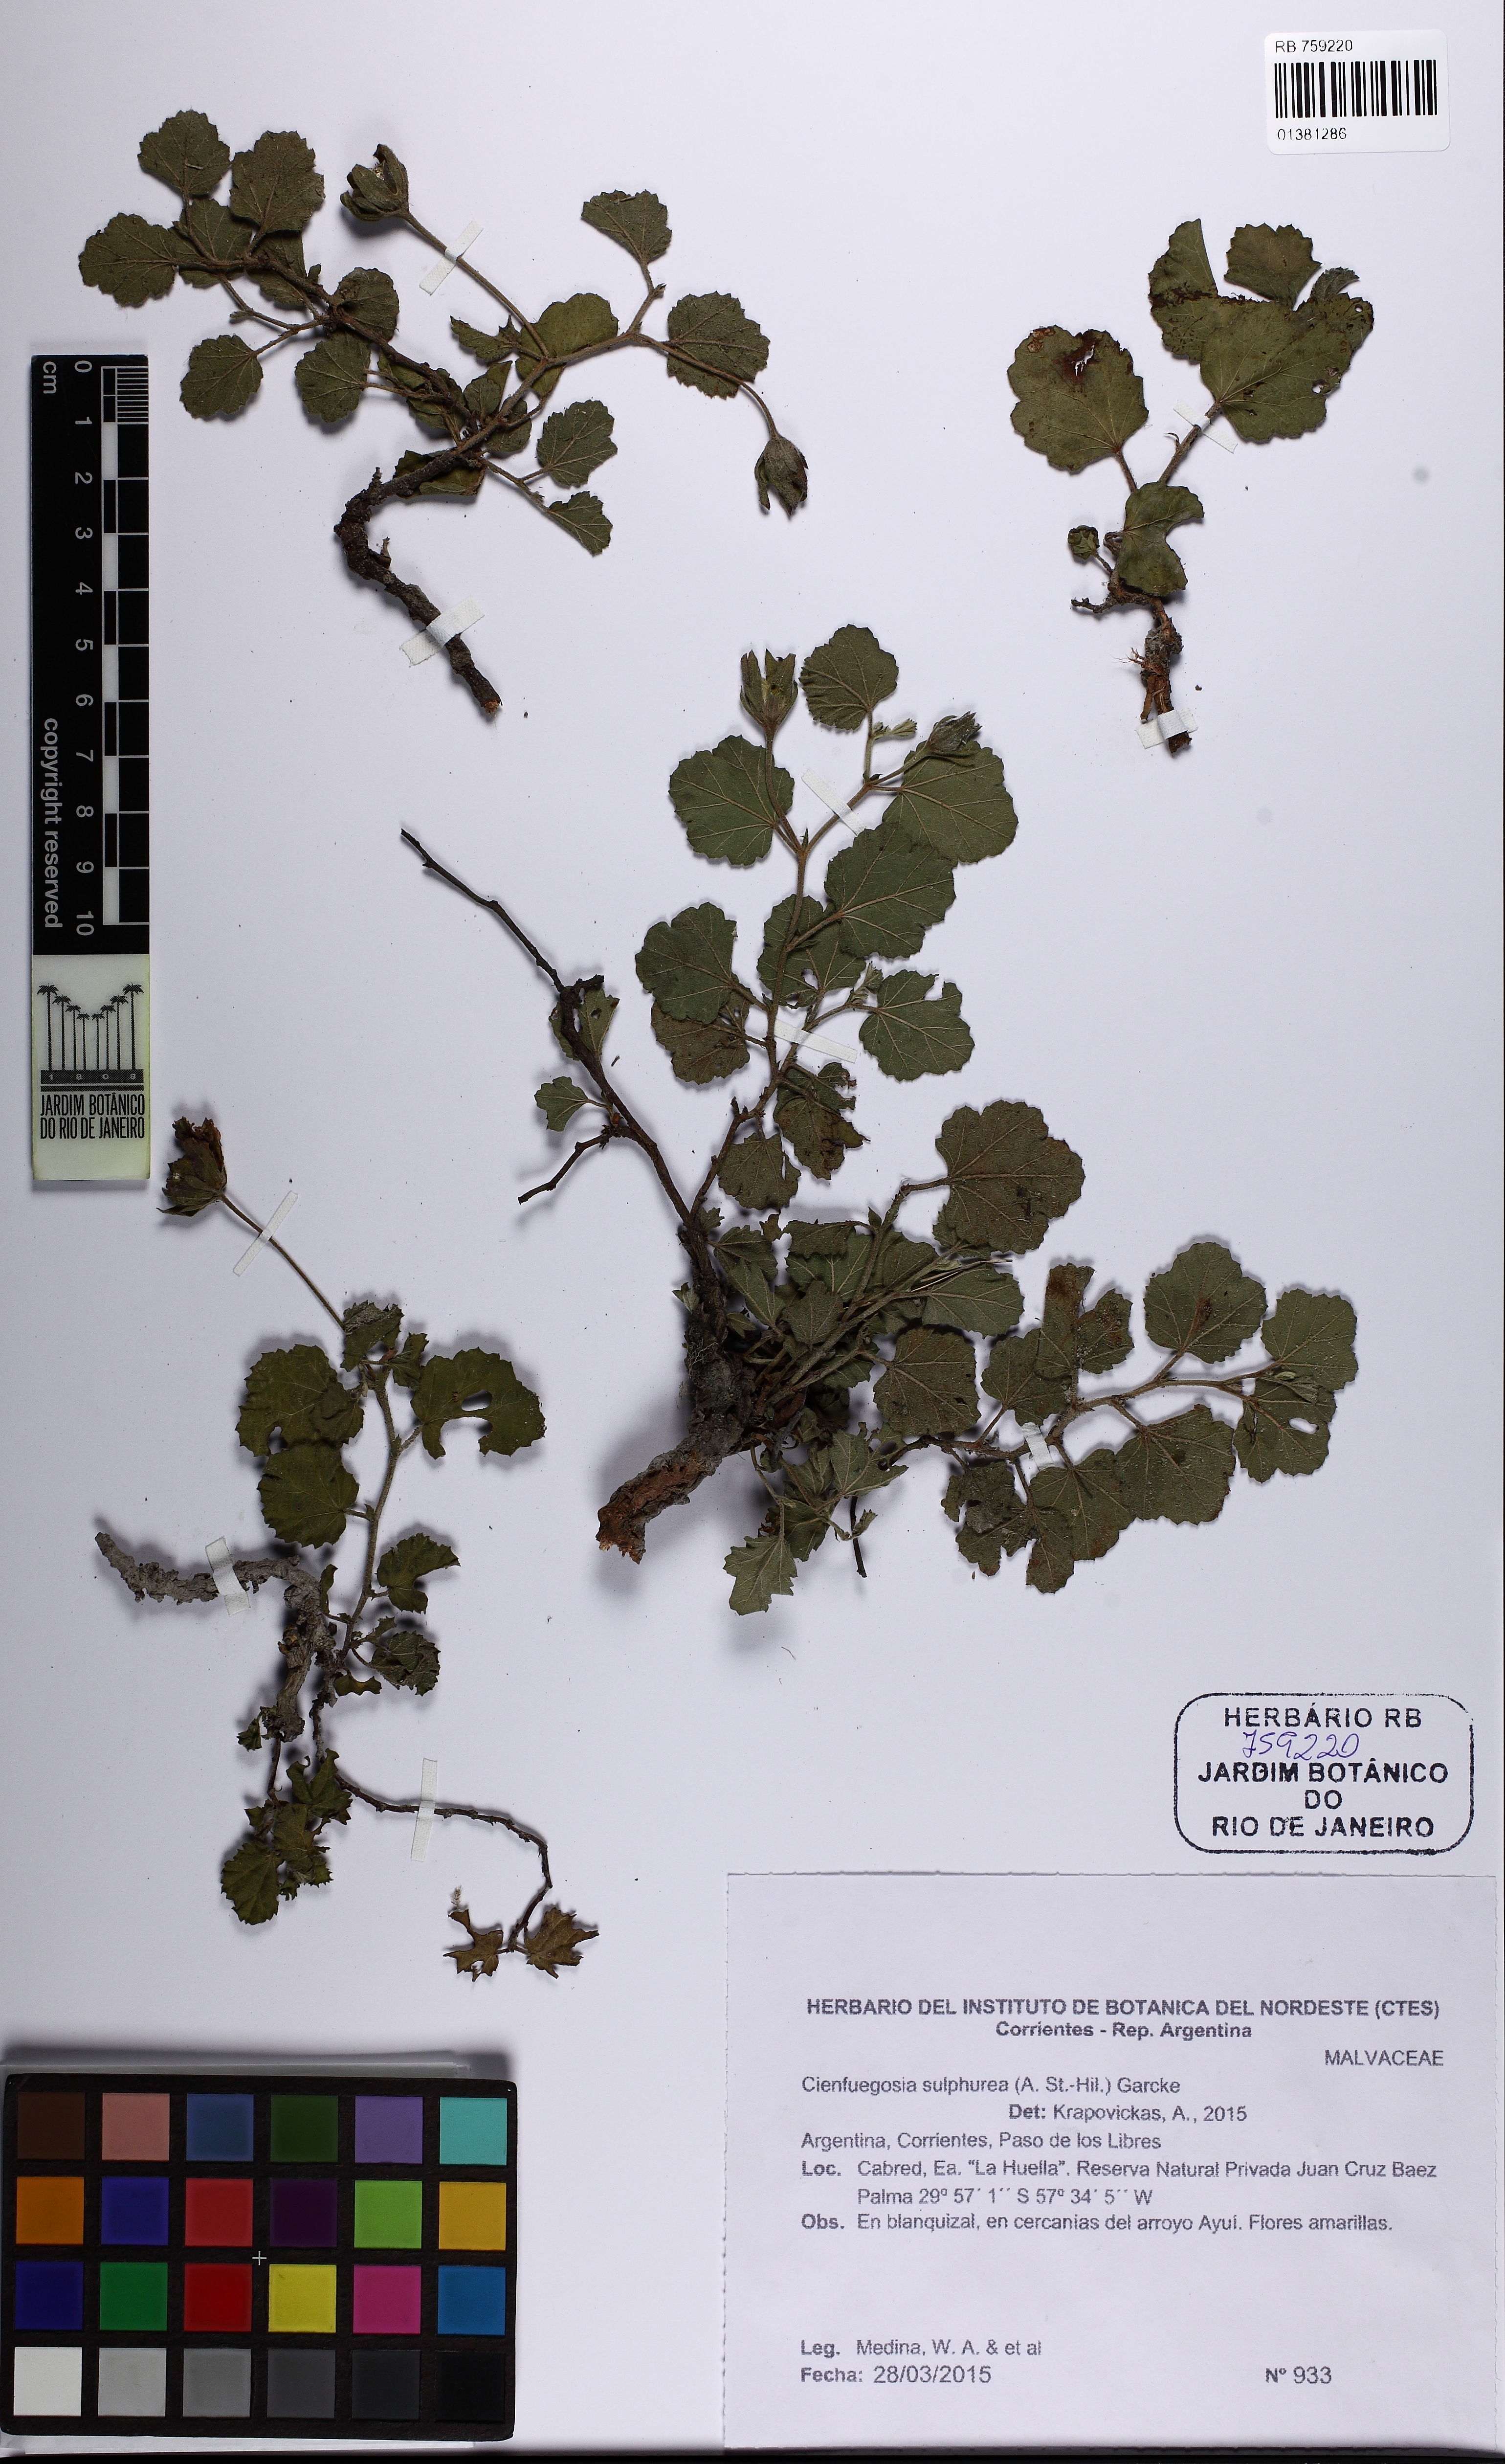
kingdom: Plantae
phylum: Tracheophyta
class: Magnoliopsida
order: Malvales
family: Malvaceae
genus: Cienfuegosia
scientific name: Cienfuegosia sulfurea
